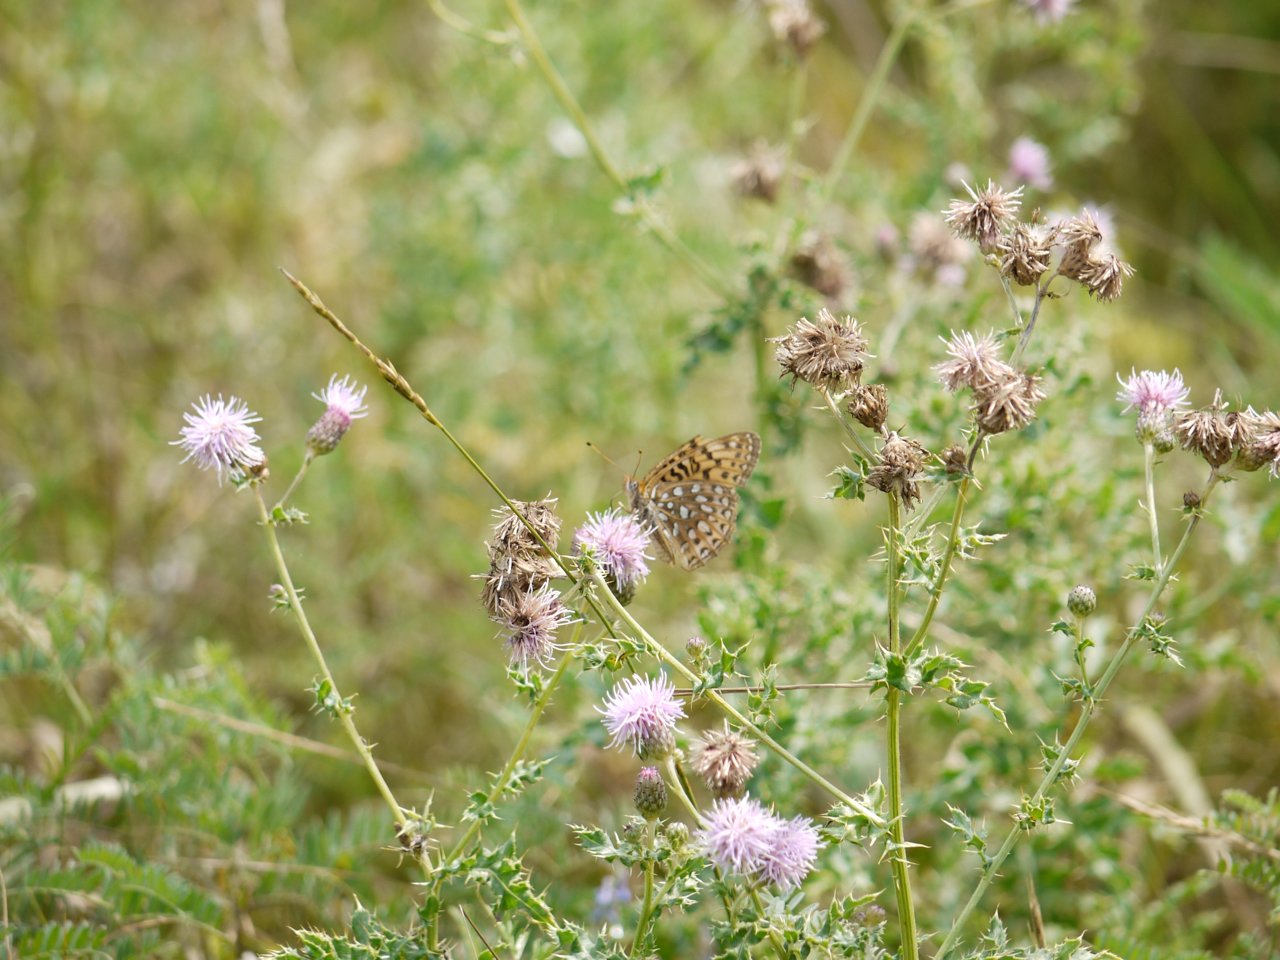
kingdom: Animalia
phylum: Arthropoda
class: Insecta
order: Lepidoptera
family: Nymphalidae
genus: Speyeria
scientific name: Speyeria atlantis
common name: Atlantis Fritillary
